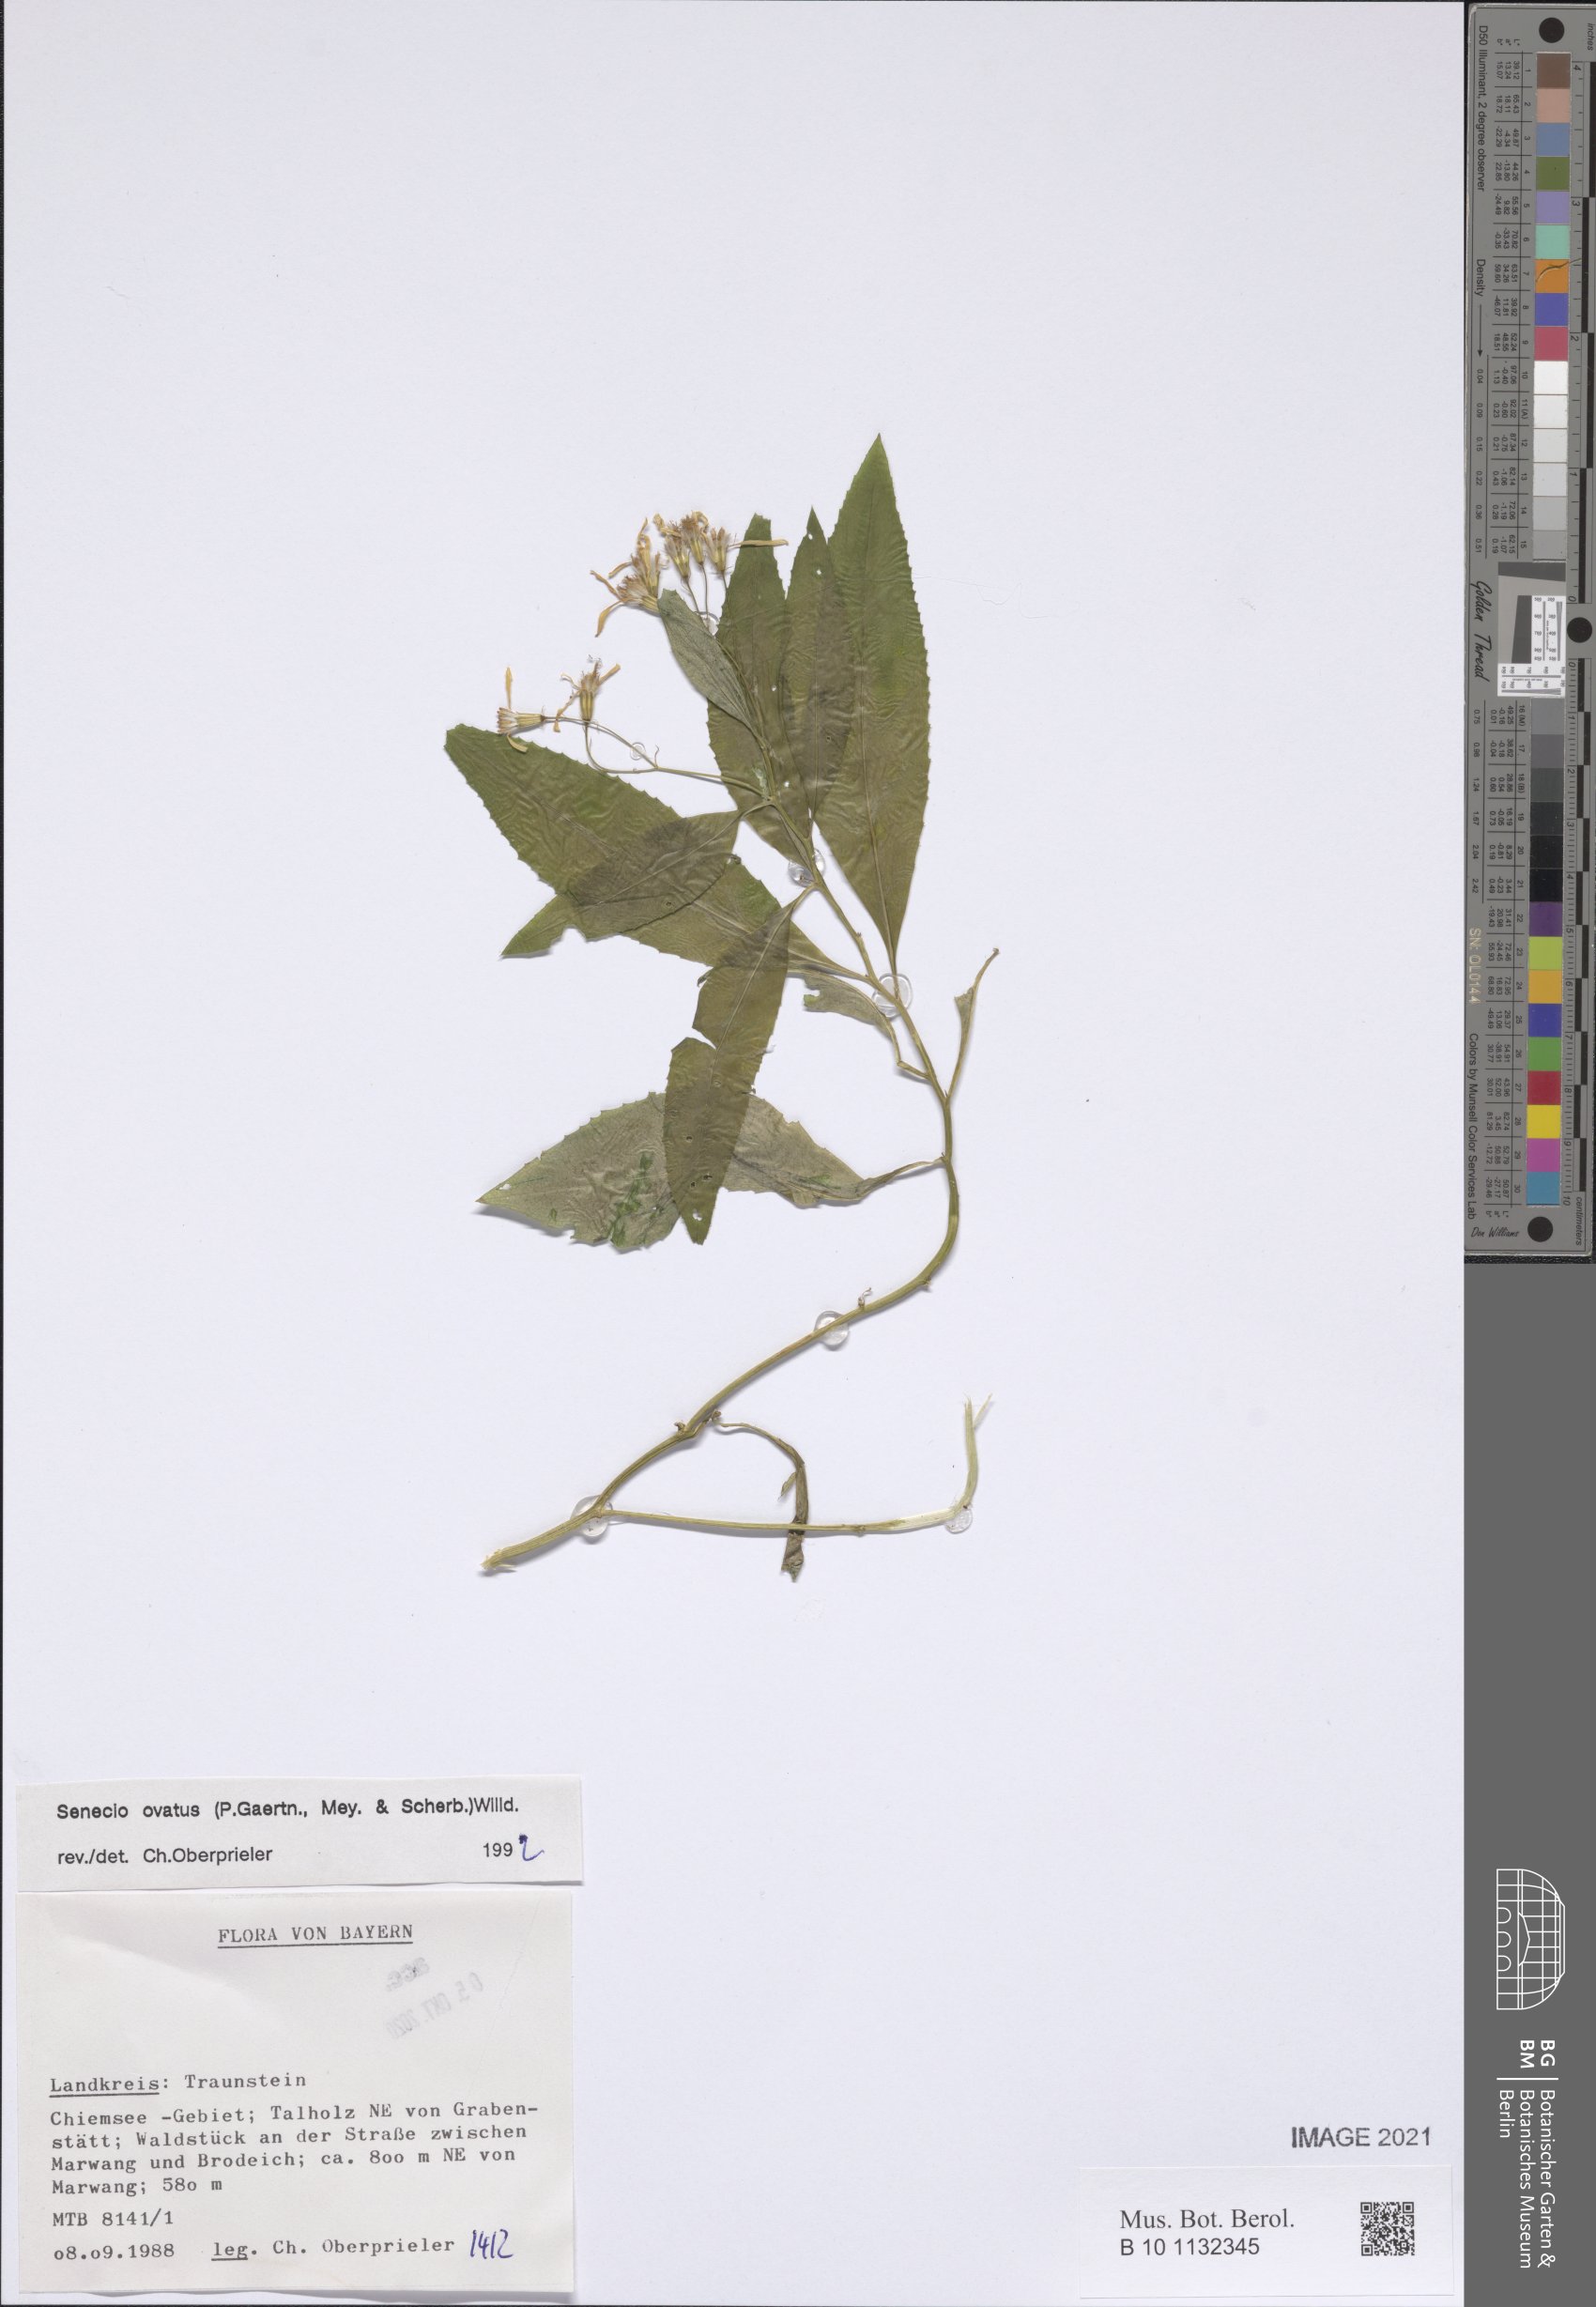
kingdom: Plantae
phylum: Tracheophyta
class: Magnoliopsida
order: Asterales
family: Asteraceae
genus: Senecio
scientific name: Senecio ovatus
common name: Wood ragwort
